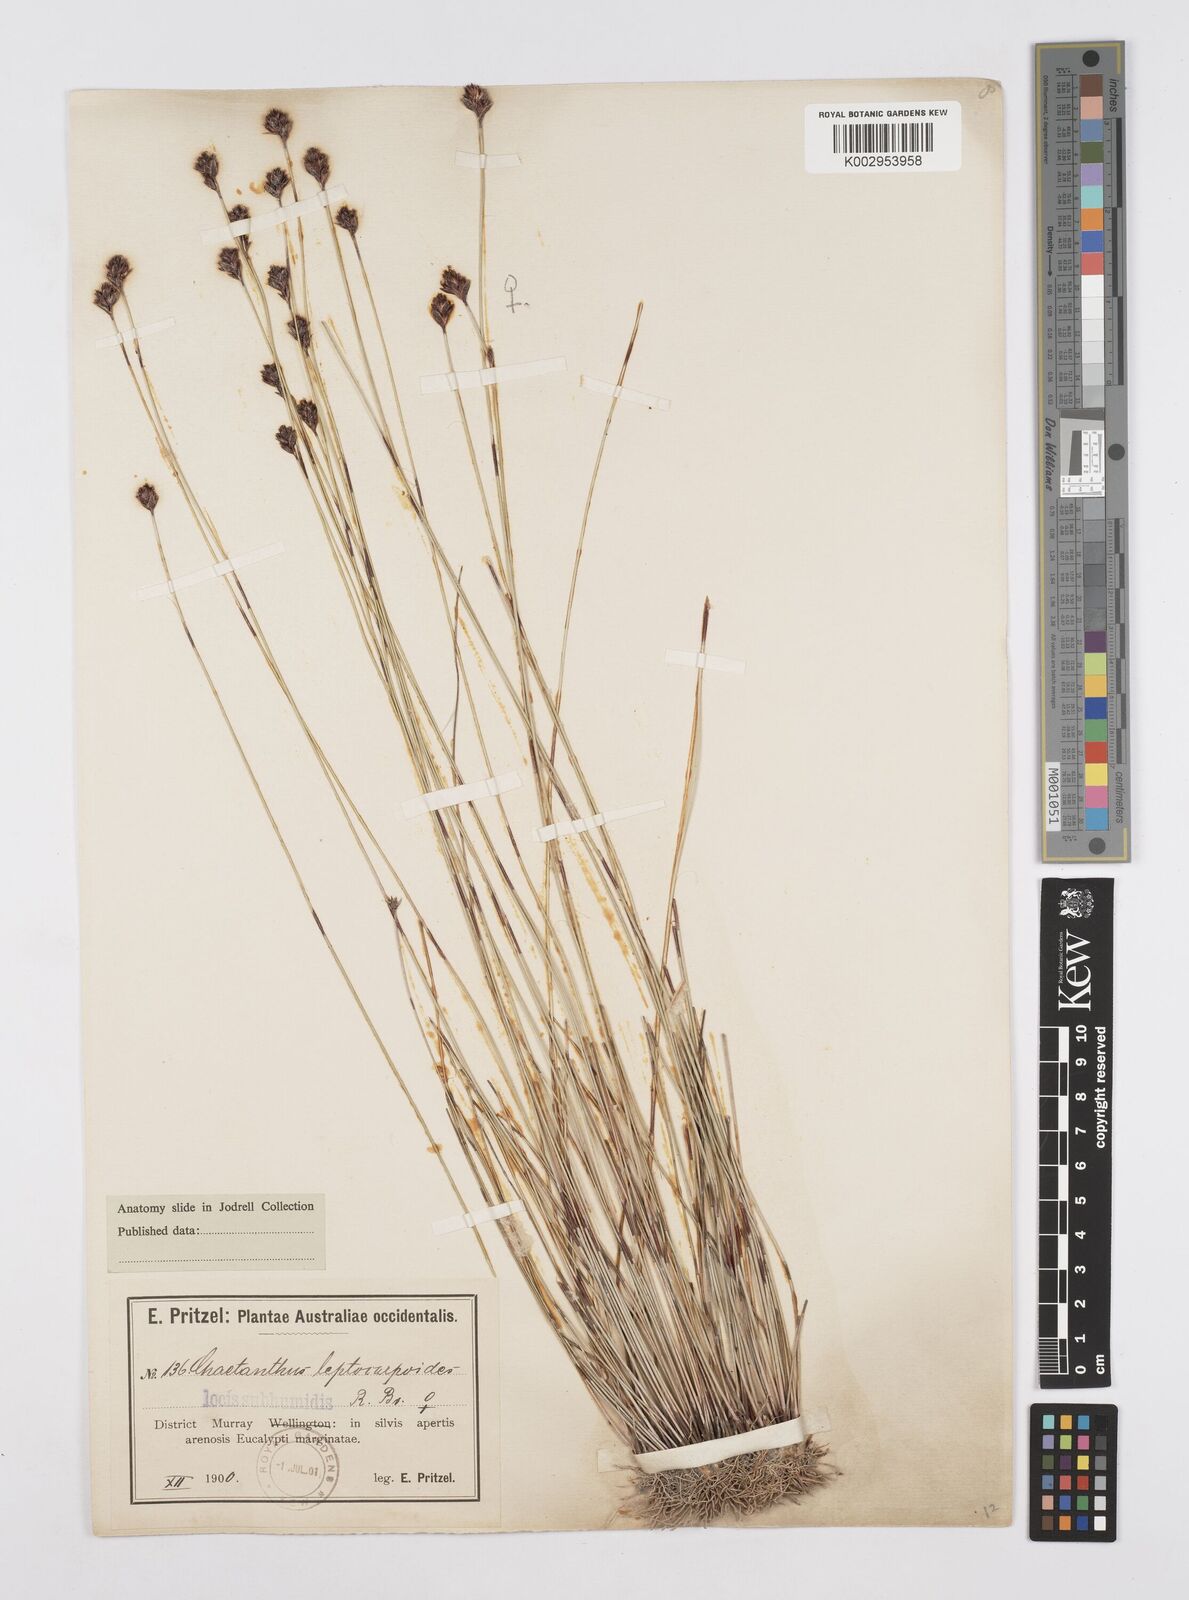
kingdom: Plantae
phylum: Tracheophyta
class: Liliopsida
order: Poales
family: Restionaceae
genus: Chaetanthus
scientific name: Chaetanthus leptocarpoides
